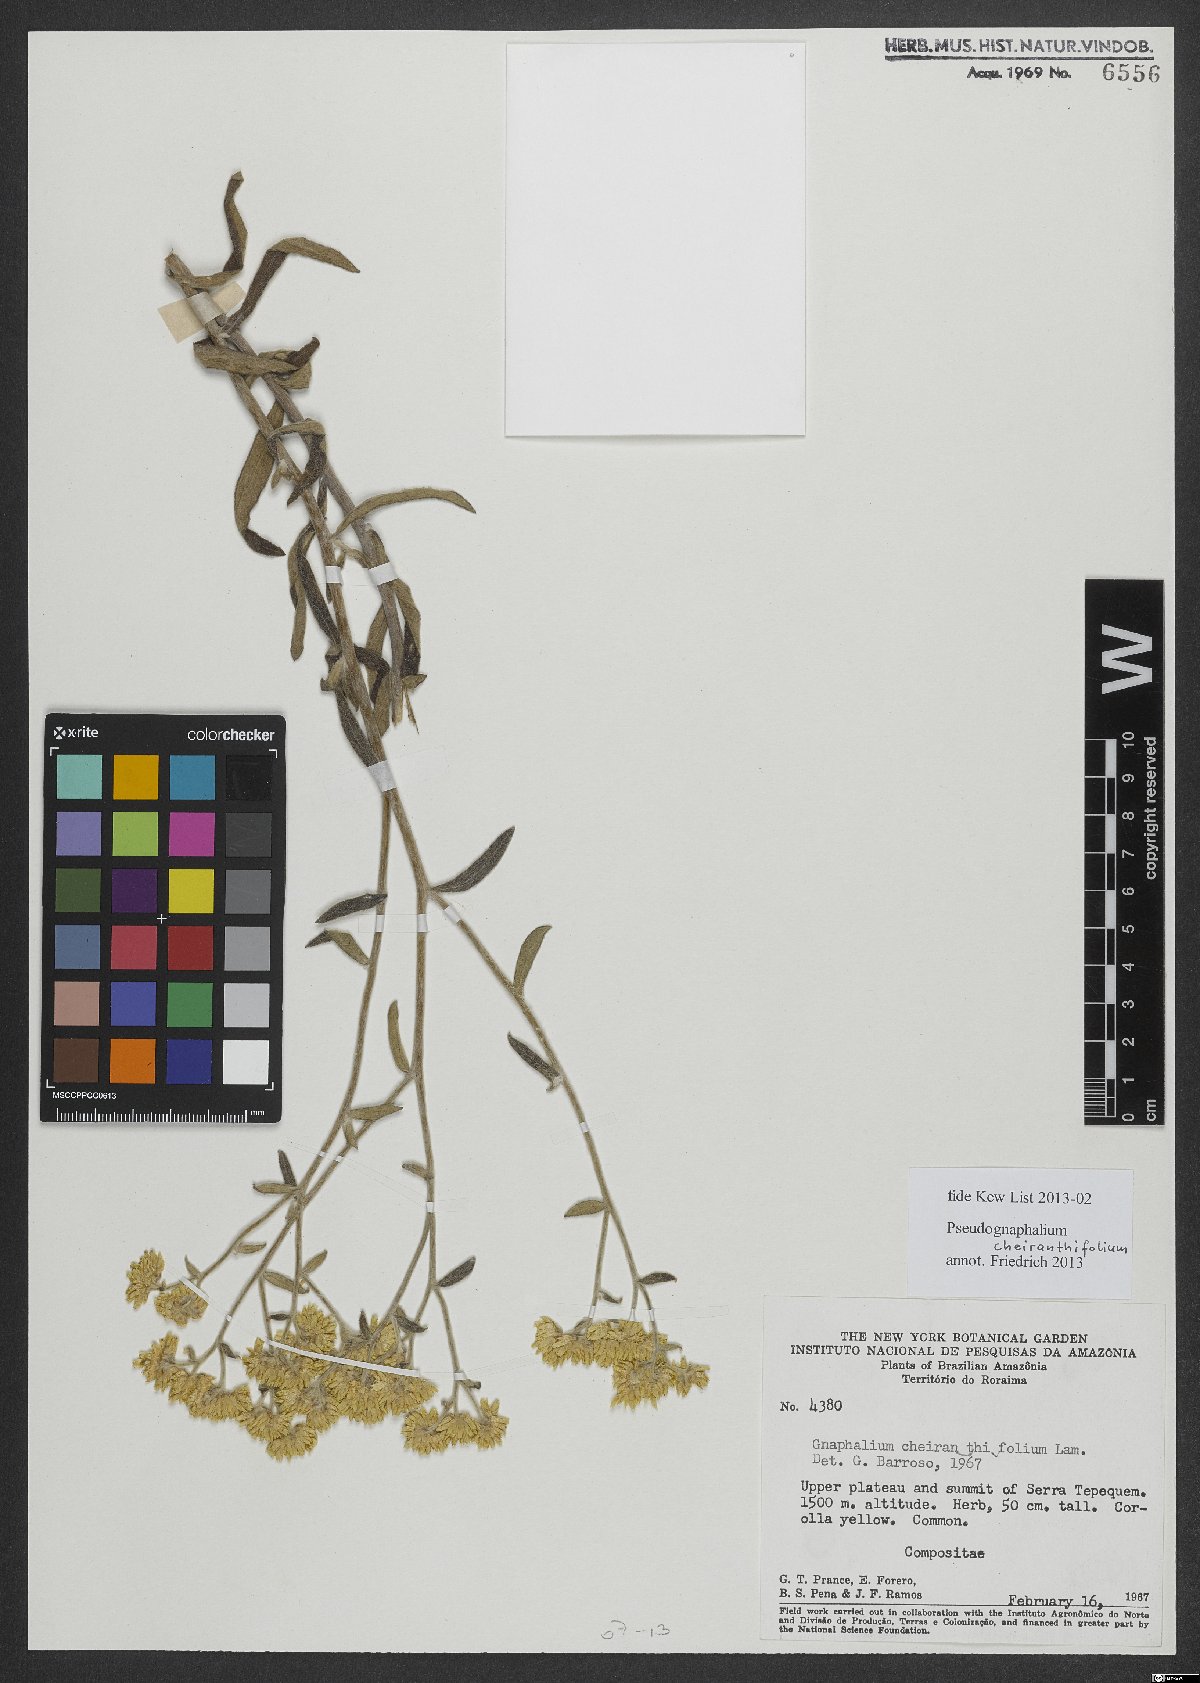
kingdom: Plantae
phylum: Tracheophyta
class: Magnoliopsida
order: Asterales
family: Asteraceae
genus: Pseudognaphalium
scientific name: Pseudognaphalium cheiranthifolium
